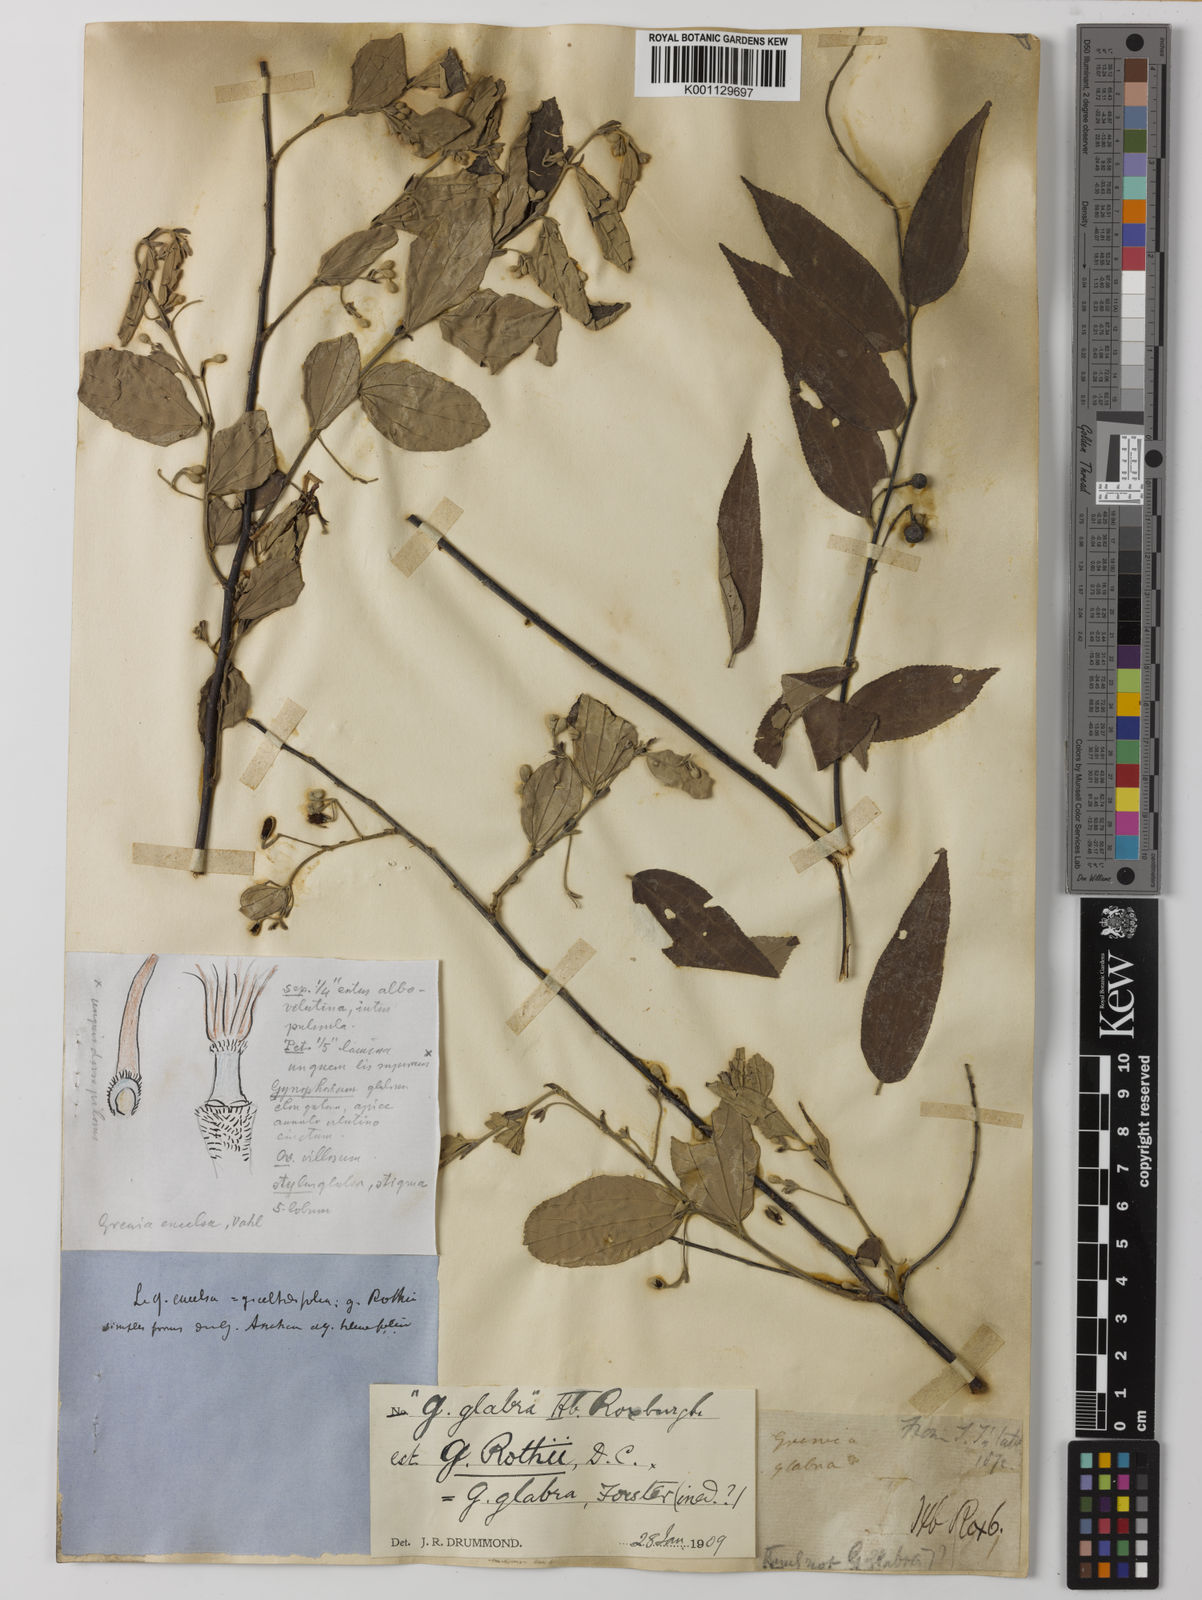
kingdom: Plantae
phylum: Tracheophyta
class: Magnoliopsida
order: Malvales
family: Malvaceae
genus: Grewia
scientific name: Grewia excelsa
